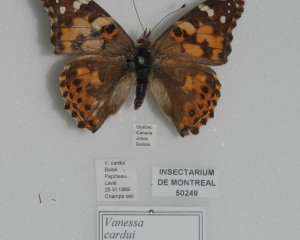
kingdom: Animalia
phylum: Arthropoda
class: Insecta
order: Lepidoptera
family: Nymphalidae
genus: Vanessa
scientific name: Vanessa cardui
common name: Painted Lady
